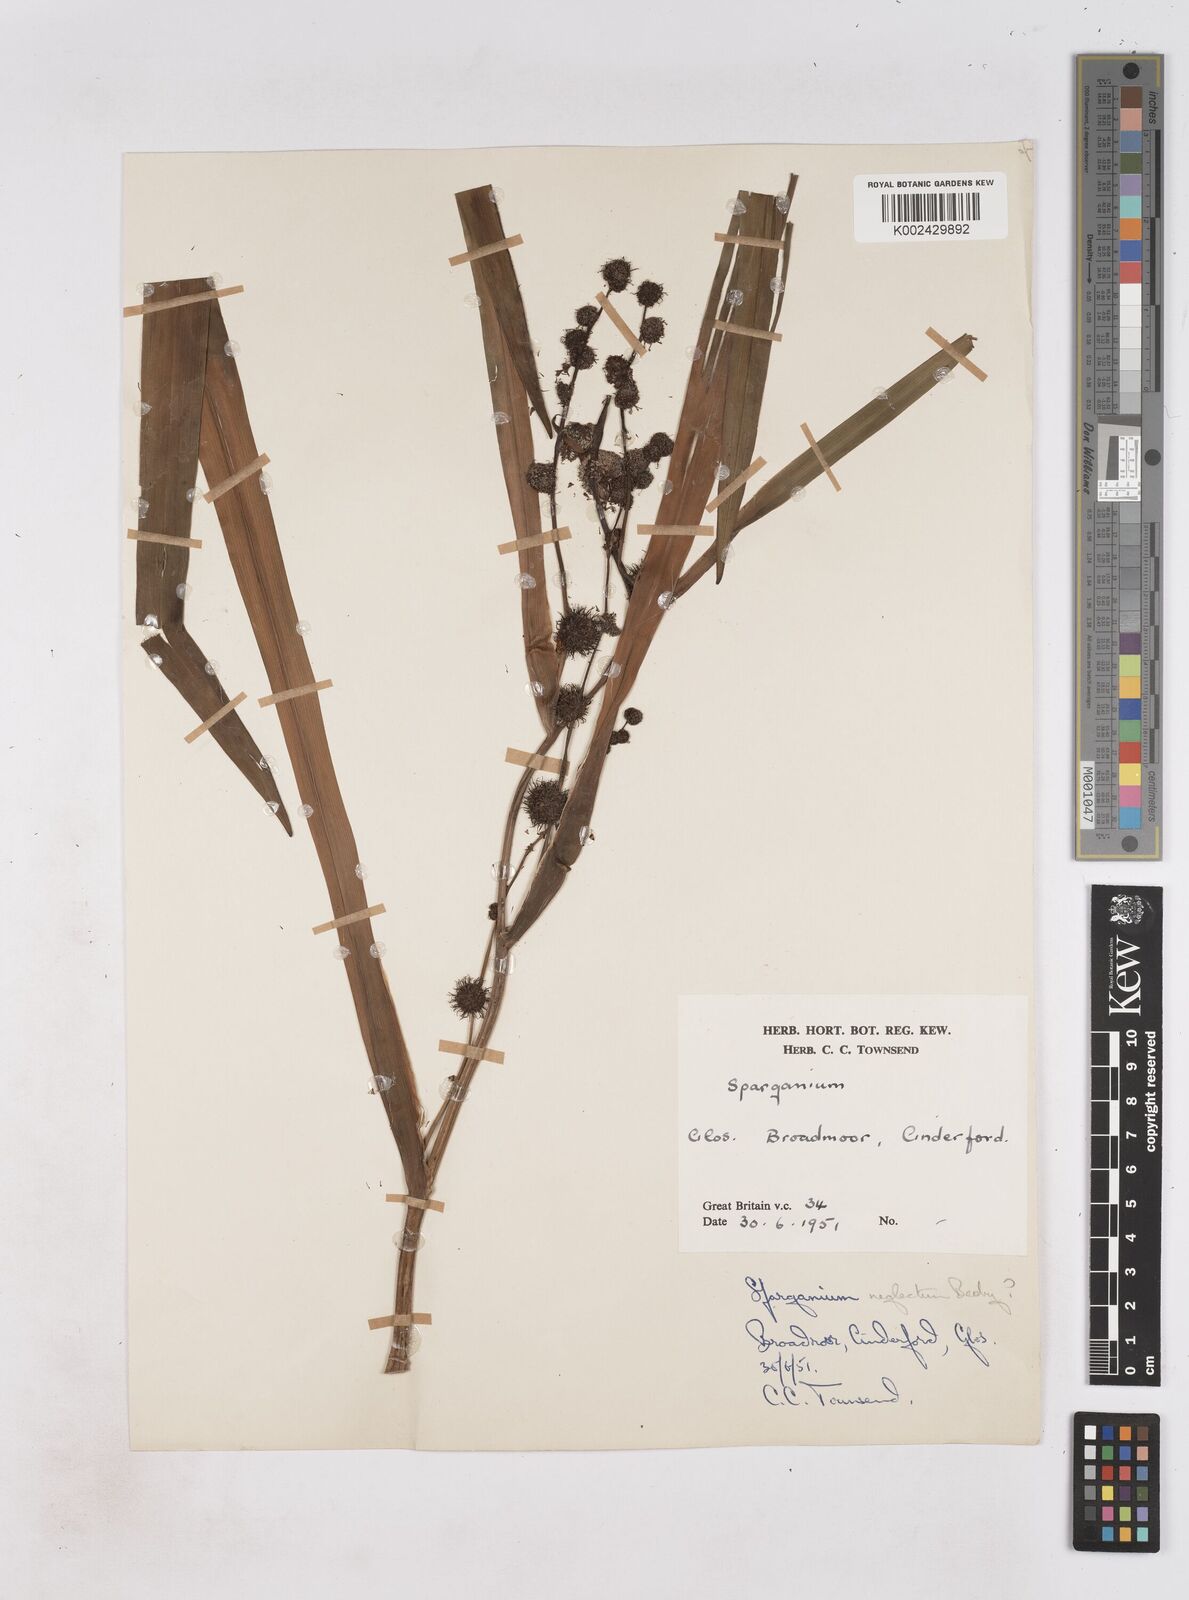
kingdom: Plantae
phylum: Tracheophyta
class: Liliopsida
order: Poales
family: Typhaceae
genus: Sparganium
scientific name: Sparganium erectum
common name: Branched bur-reed
